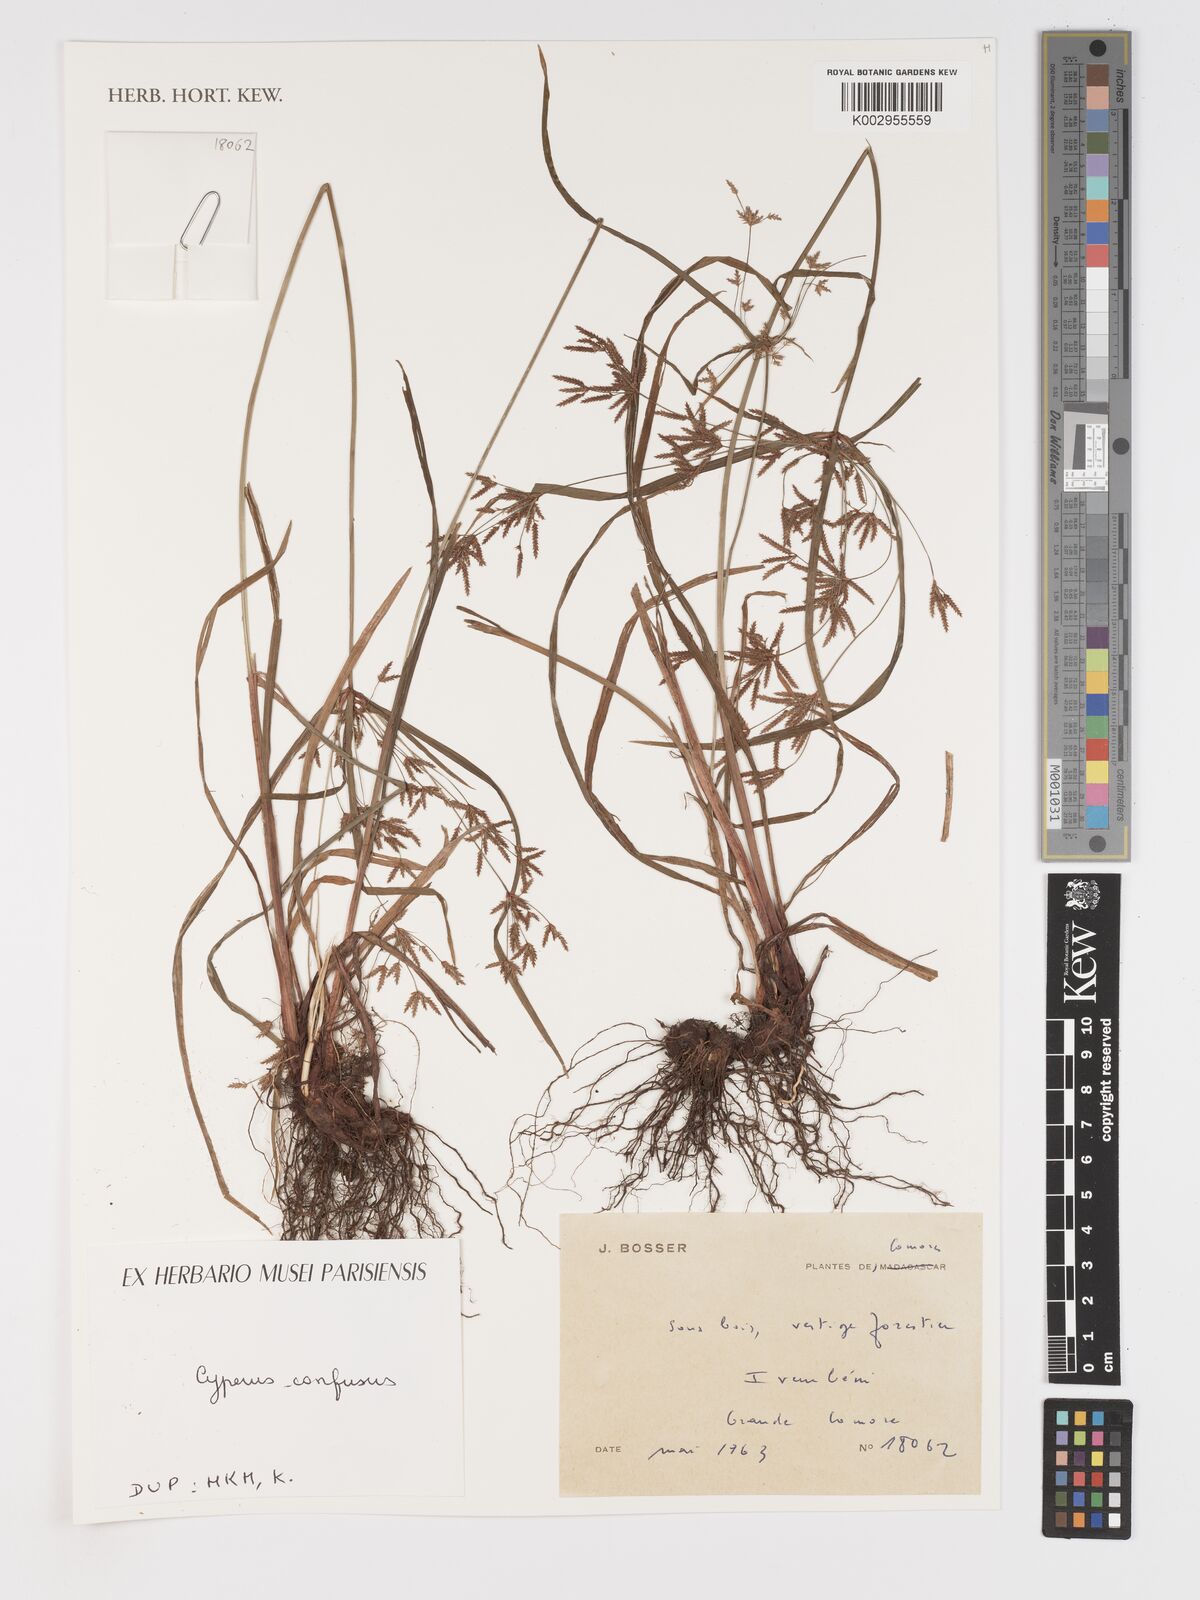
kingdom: Plantae
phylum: Tracheophyta
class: Liliopsida
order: Poales
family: Cyperaceae
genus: Cyperus
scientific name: Cyperus longifolius
